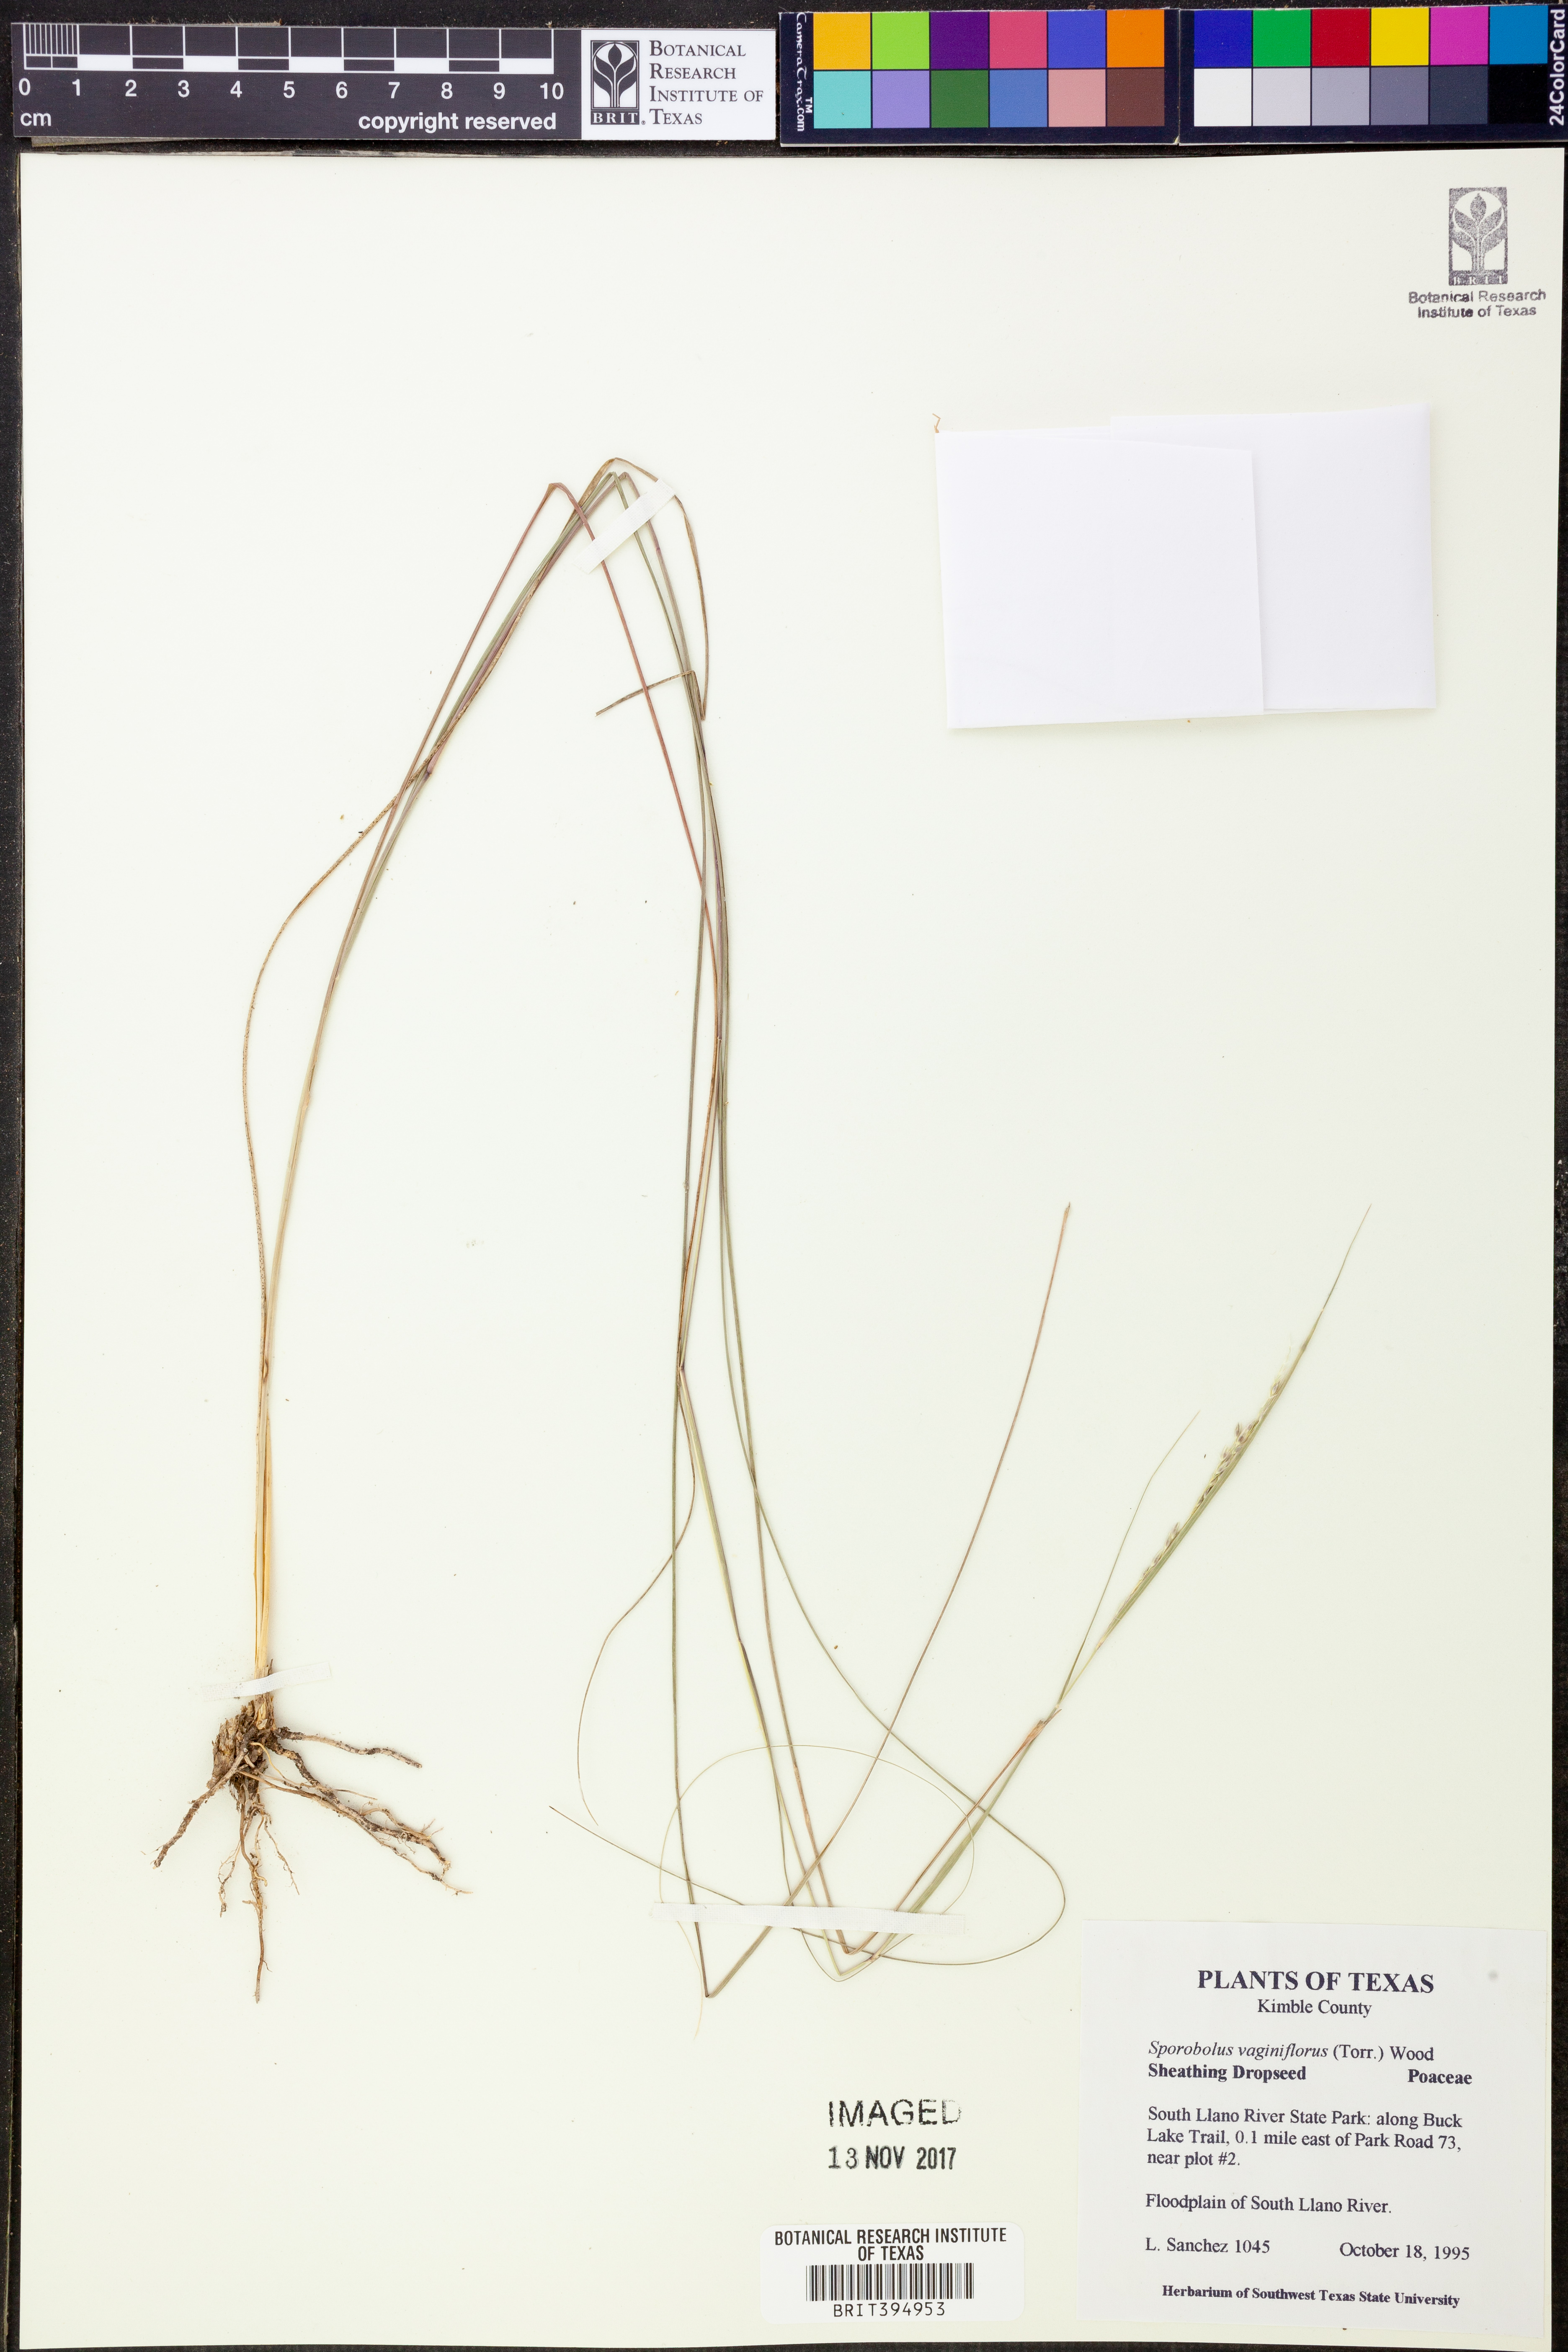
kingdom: Plantae
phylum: Tracheophyta
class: Liliopsida
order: Poales
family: Poaceae
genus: Sporobolus
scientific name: Sporobolus vaginiflorus
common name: Poverty dropseed
